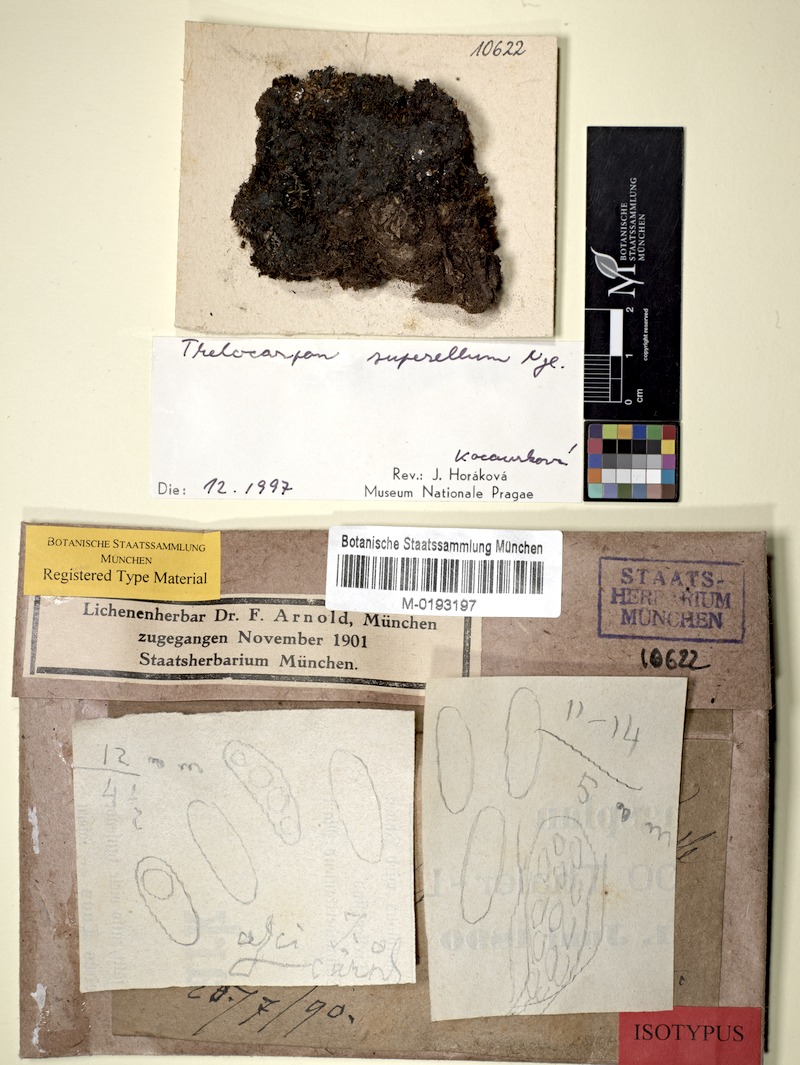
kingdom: Fungi
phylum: Ascomycota
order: Thelocarpales
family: Thelocarpaceae
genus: Thelocarpon
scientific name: Thelocarpon superellum
